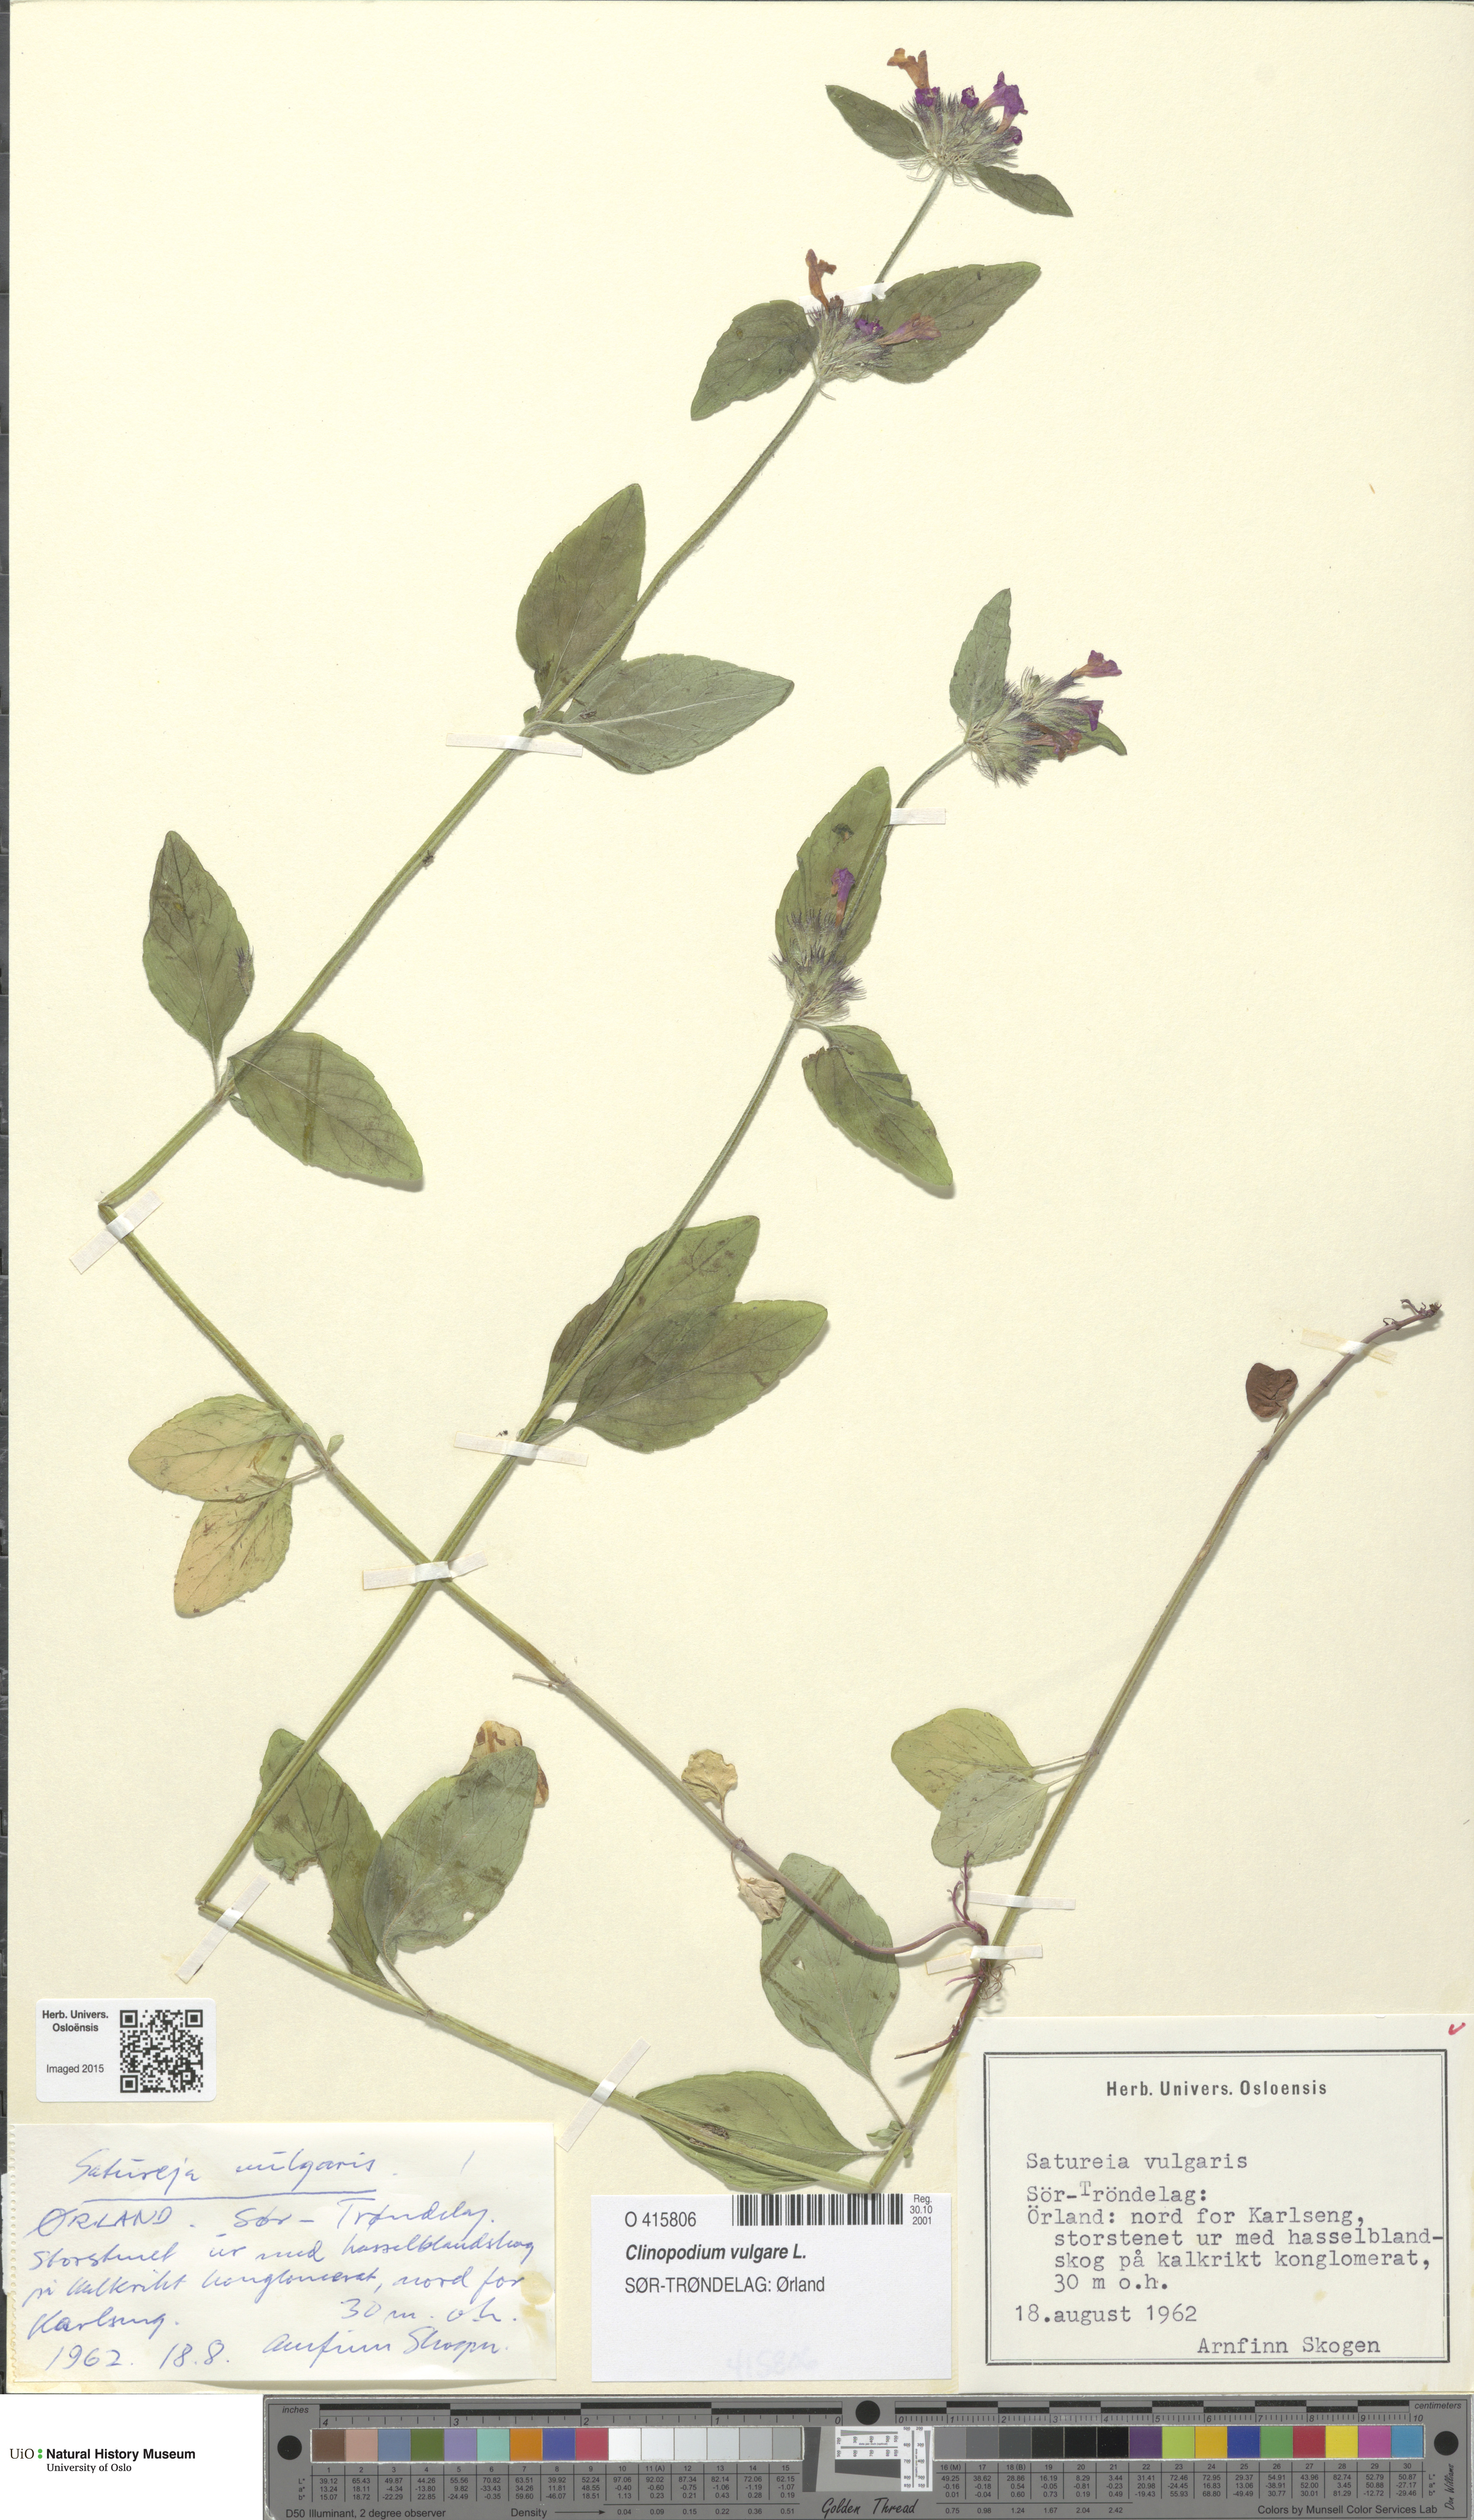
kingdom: Plantae
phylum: Tracheophyta
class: Magnoliopsida
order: Lamiales
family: Lamiaceae
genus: Clinopodium
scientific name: Clinopodium vulgare
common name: Wild basil
